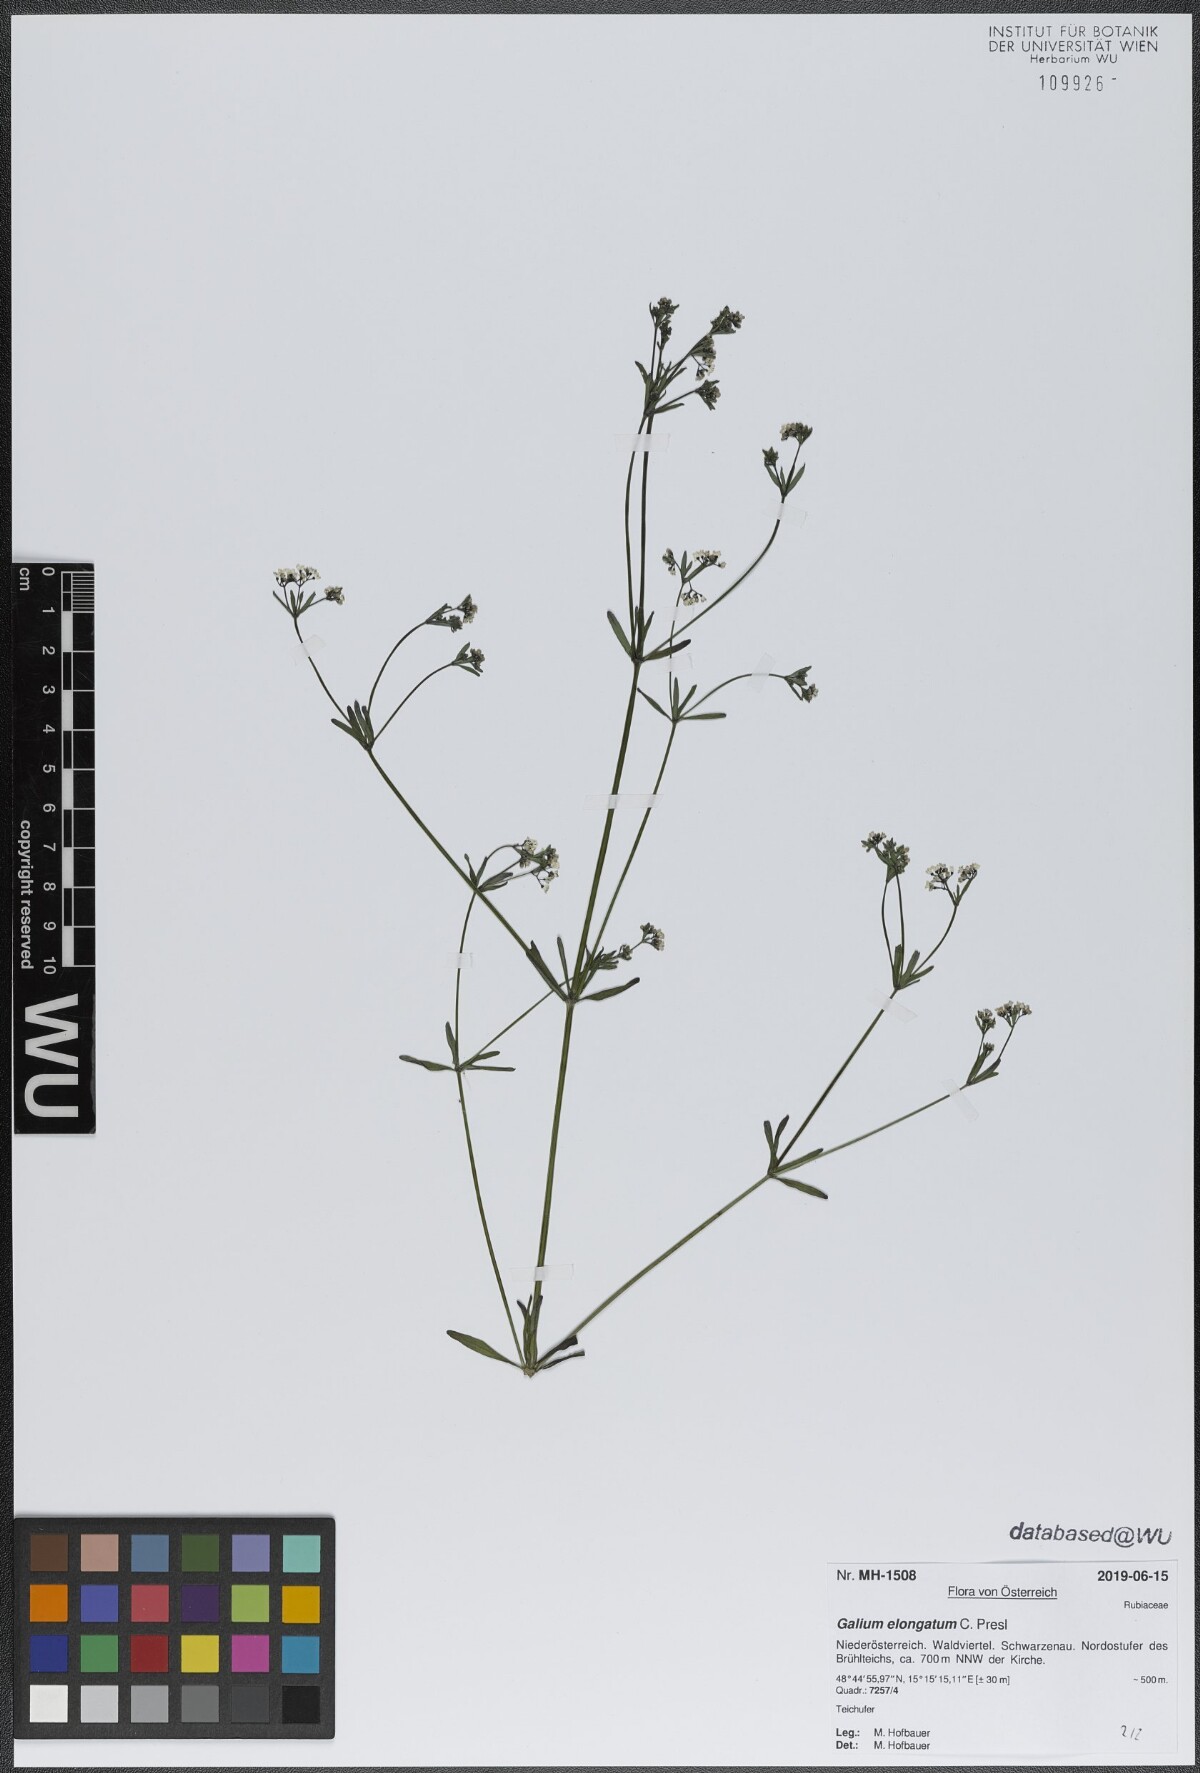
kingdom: Plantae
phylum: Tracheophyta
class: Magnoliopsida
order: Gentianales
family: Rubiaceae
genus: Galium
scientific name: Galium elongatum
